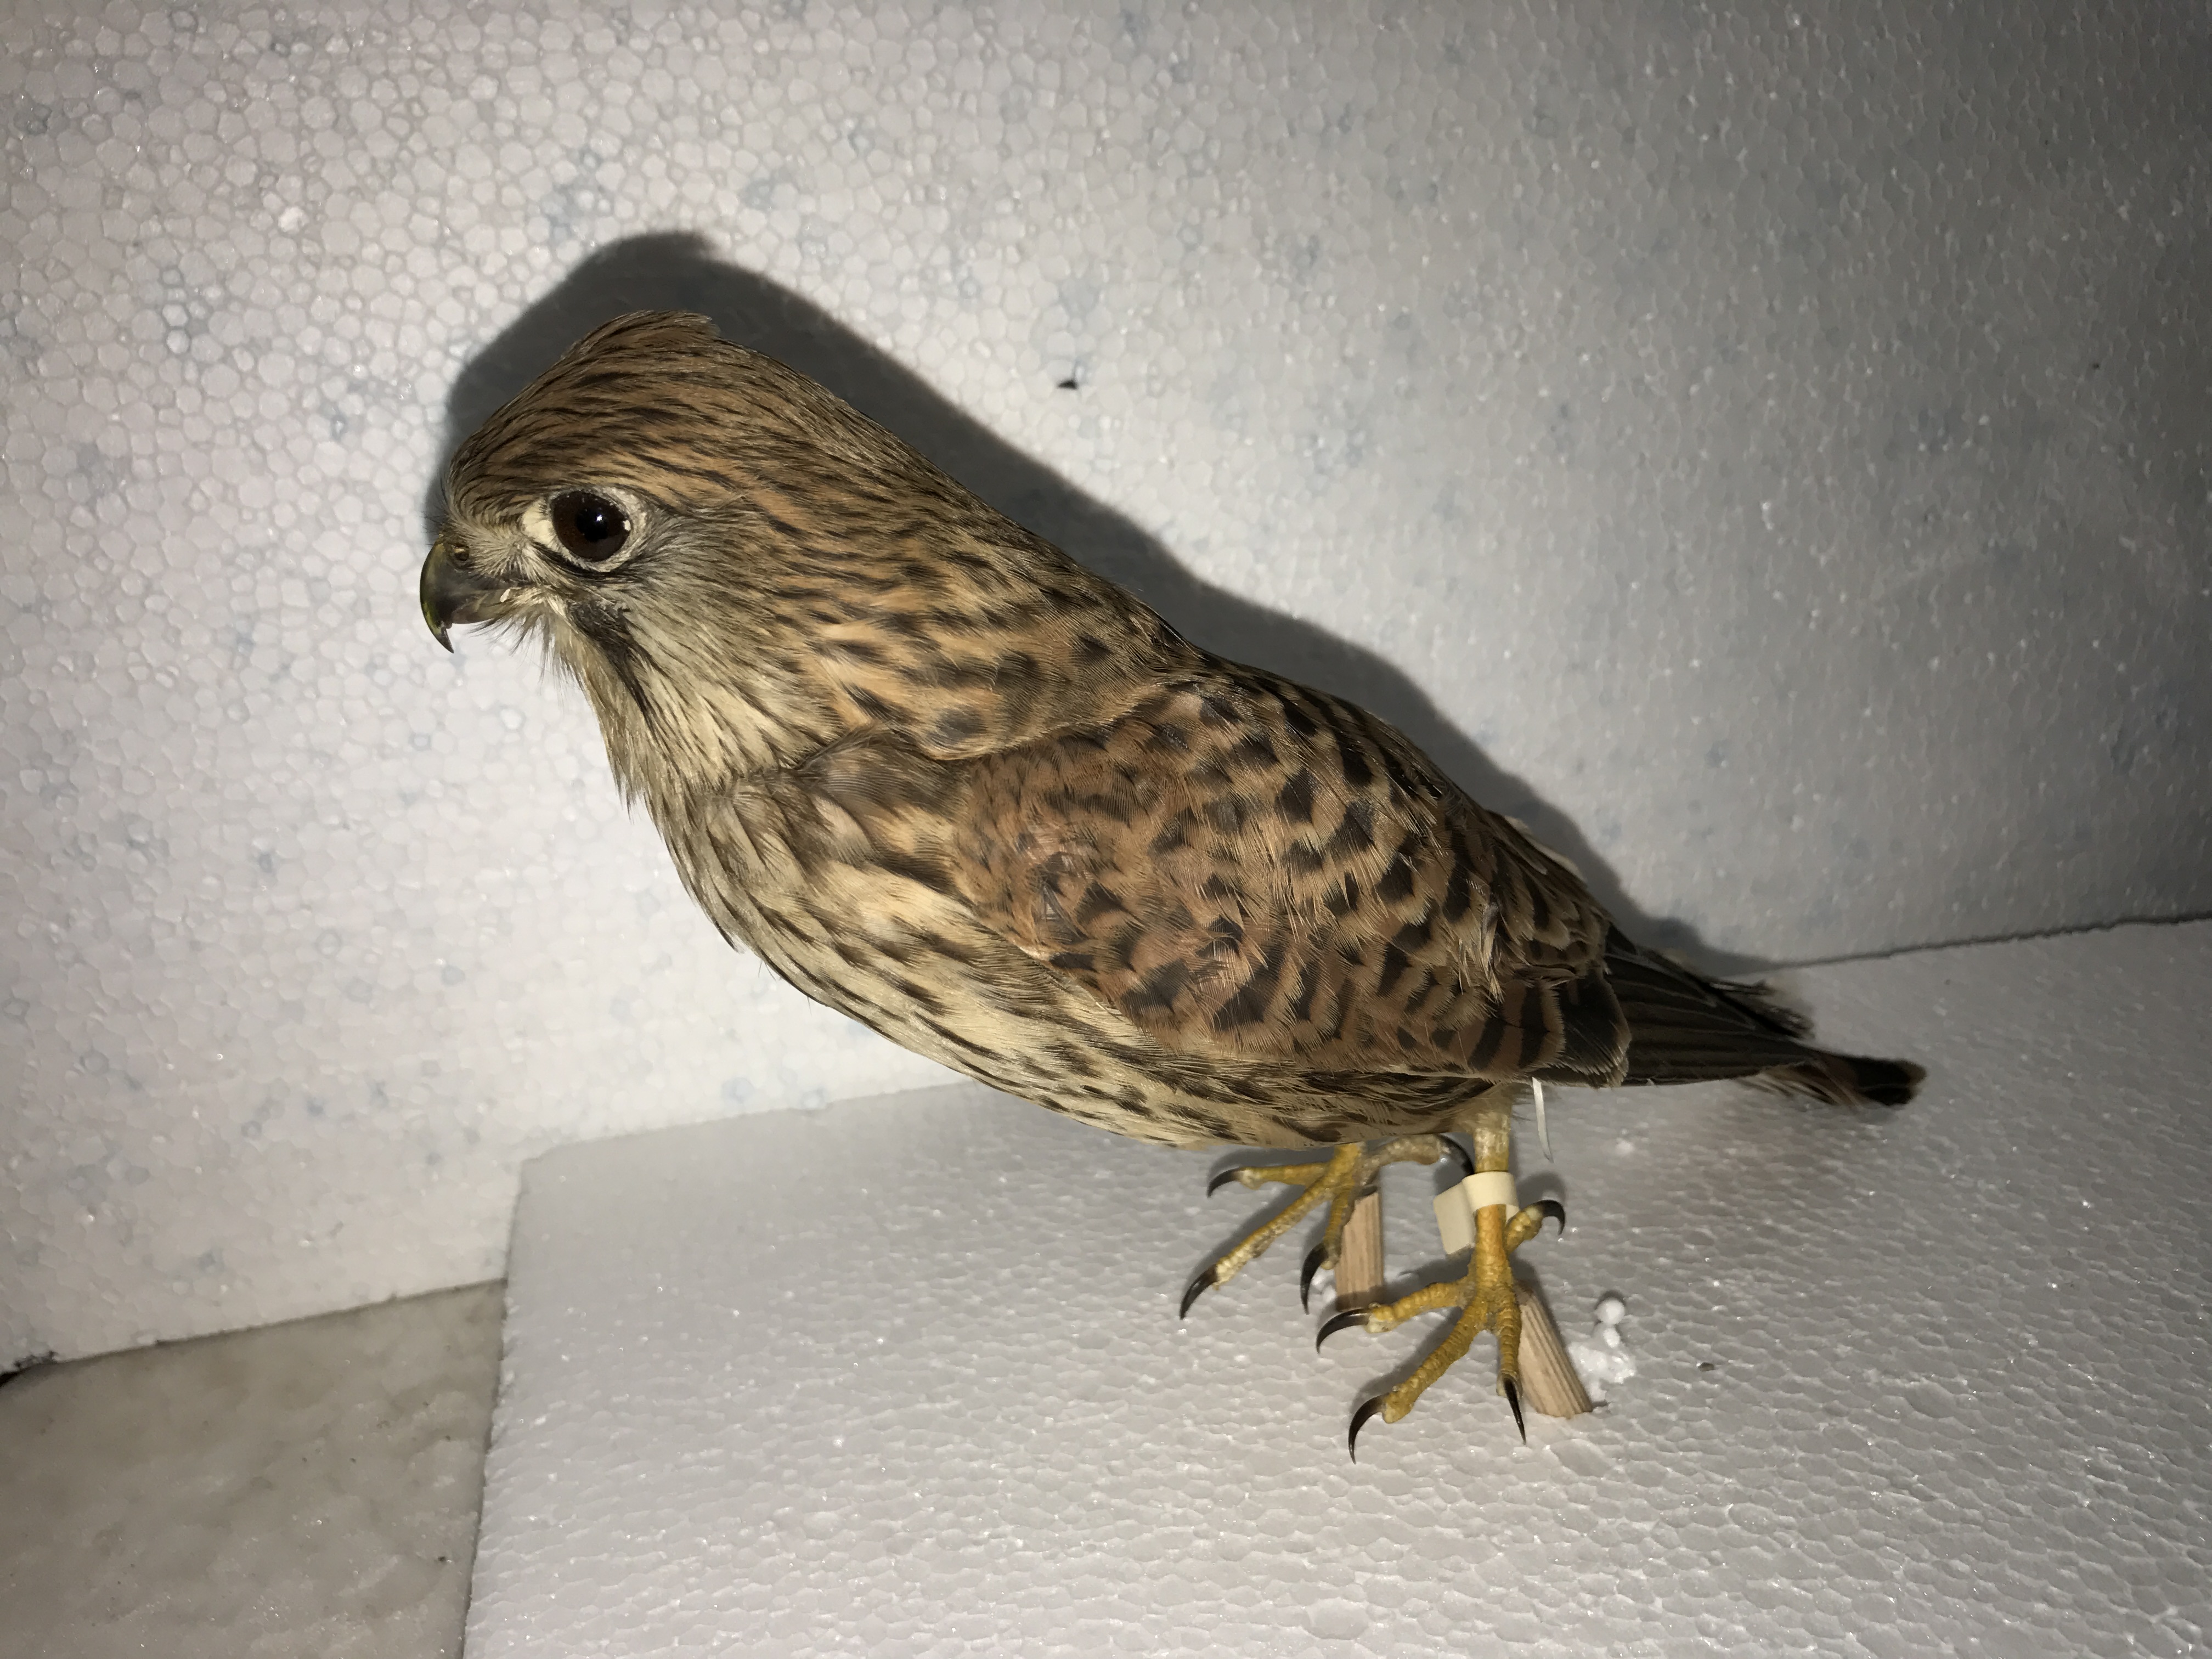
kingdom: Animalia
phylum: Chordata
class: Aves
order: Falconiformes
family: Falconidae
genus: Falco
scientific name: Falco tinnunculus
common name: Common kestrel
